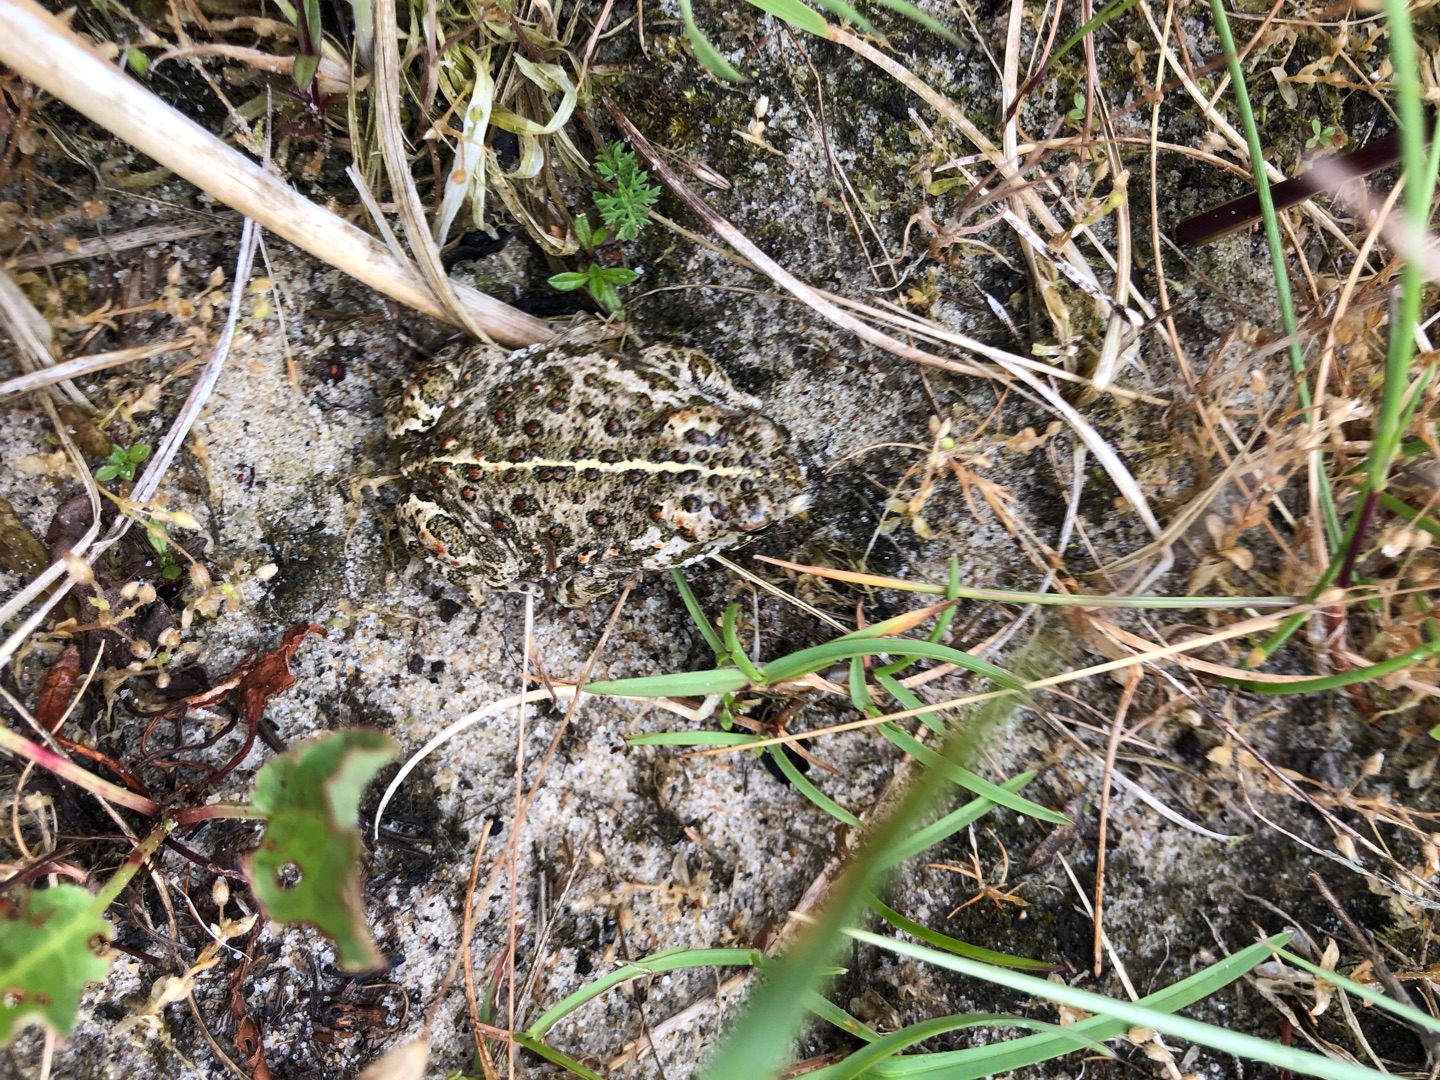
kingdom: Animalia
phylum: Chordata
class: Amphibia
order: Anura
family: Bufonidae
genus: Epidalea
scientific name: Epidalea calamita
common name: Strandtudse
